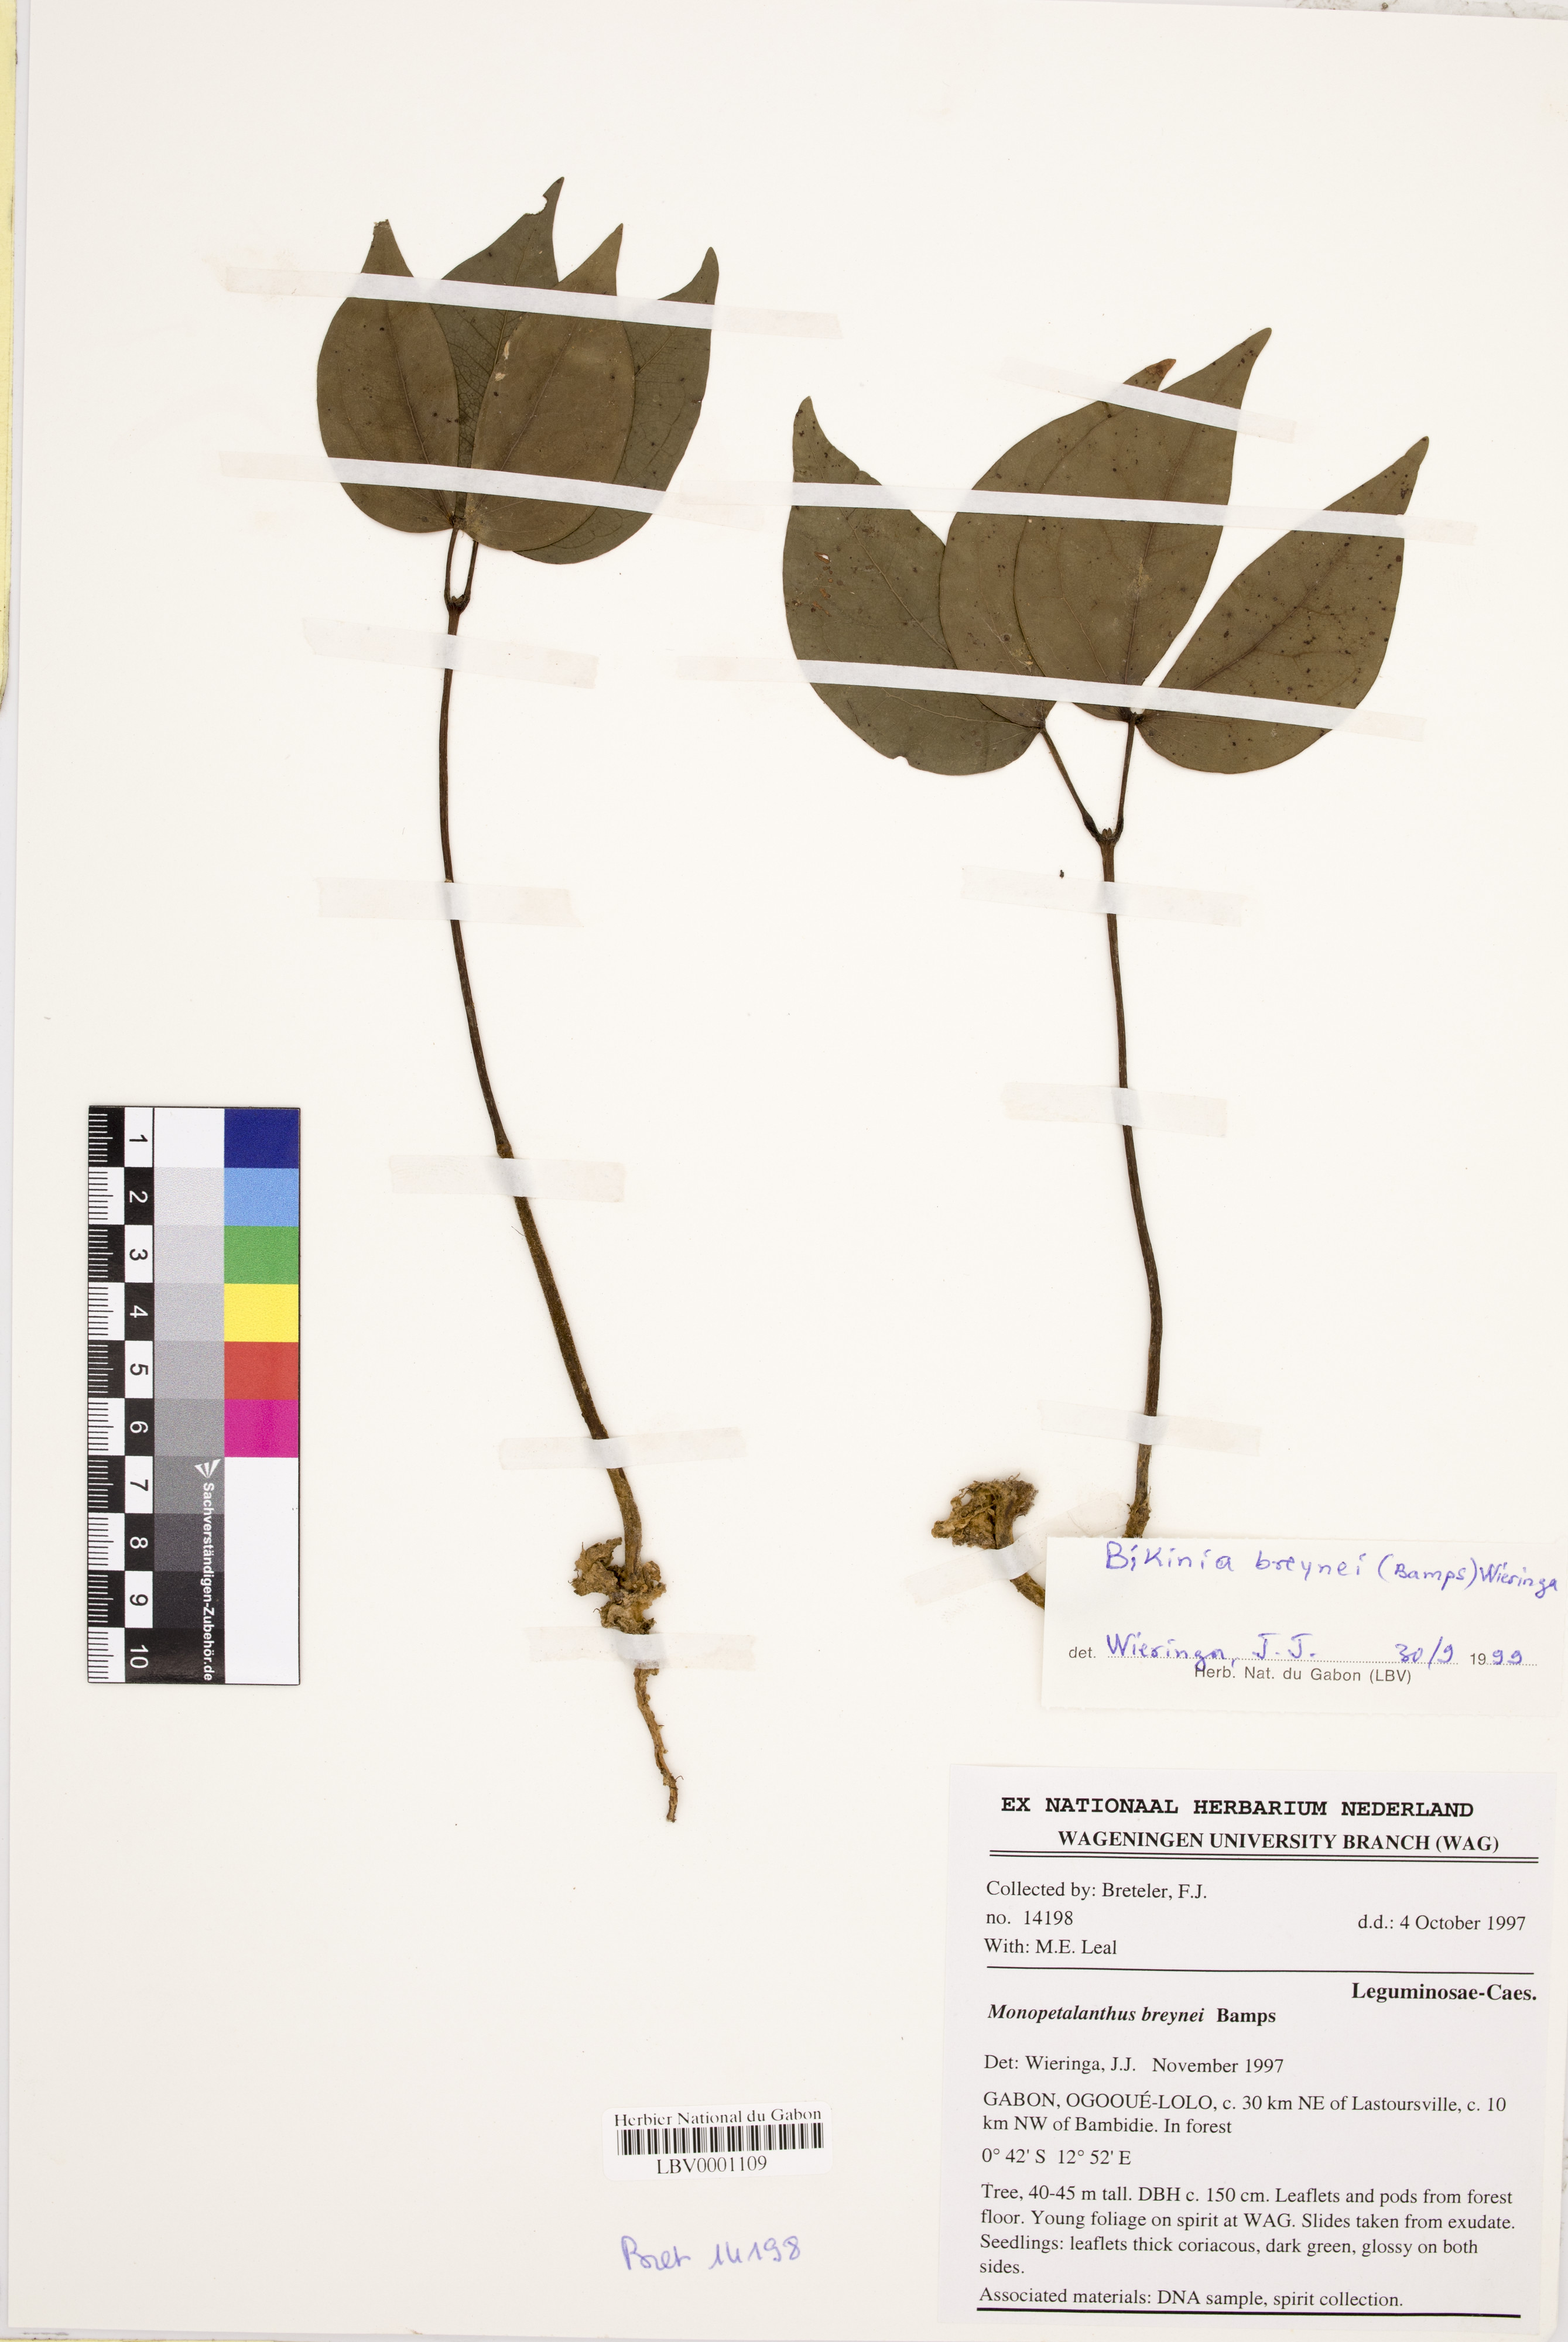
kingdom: Plantae
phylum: Tracheophyta
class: Magnoliopsida
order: Fabales
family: Fabaceae
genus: Bikinia
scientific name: Bikinia breynei
